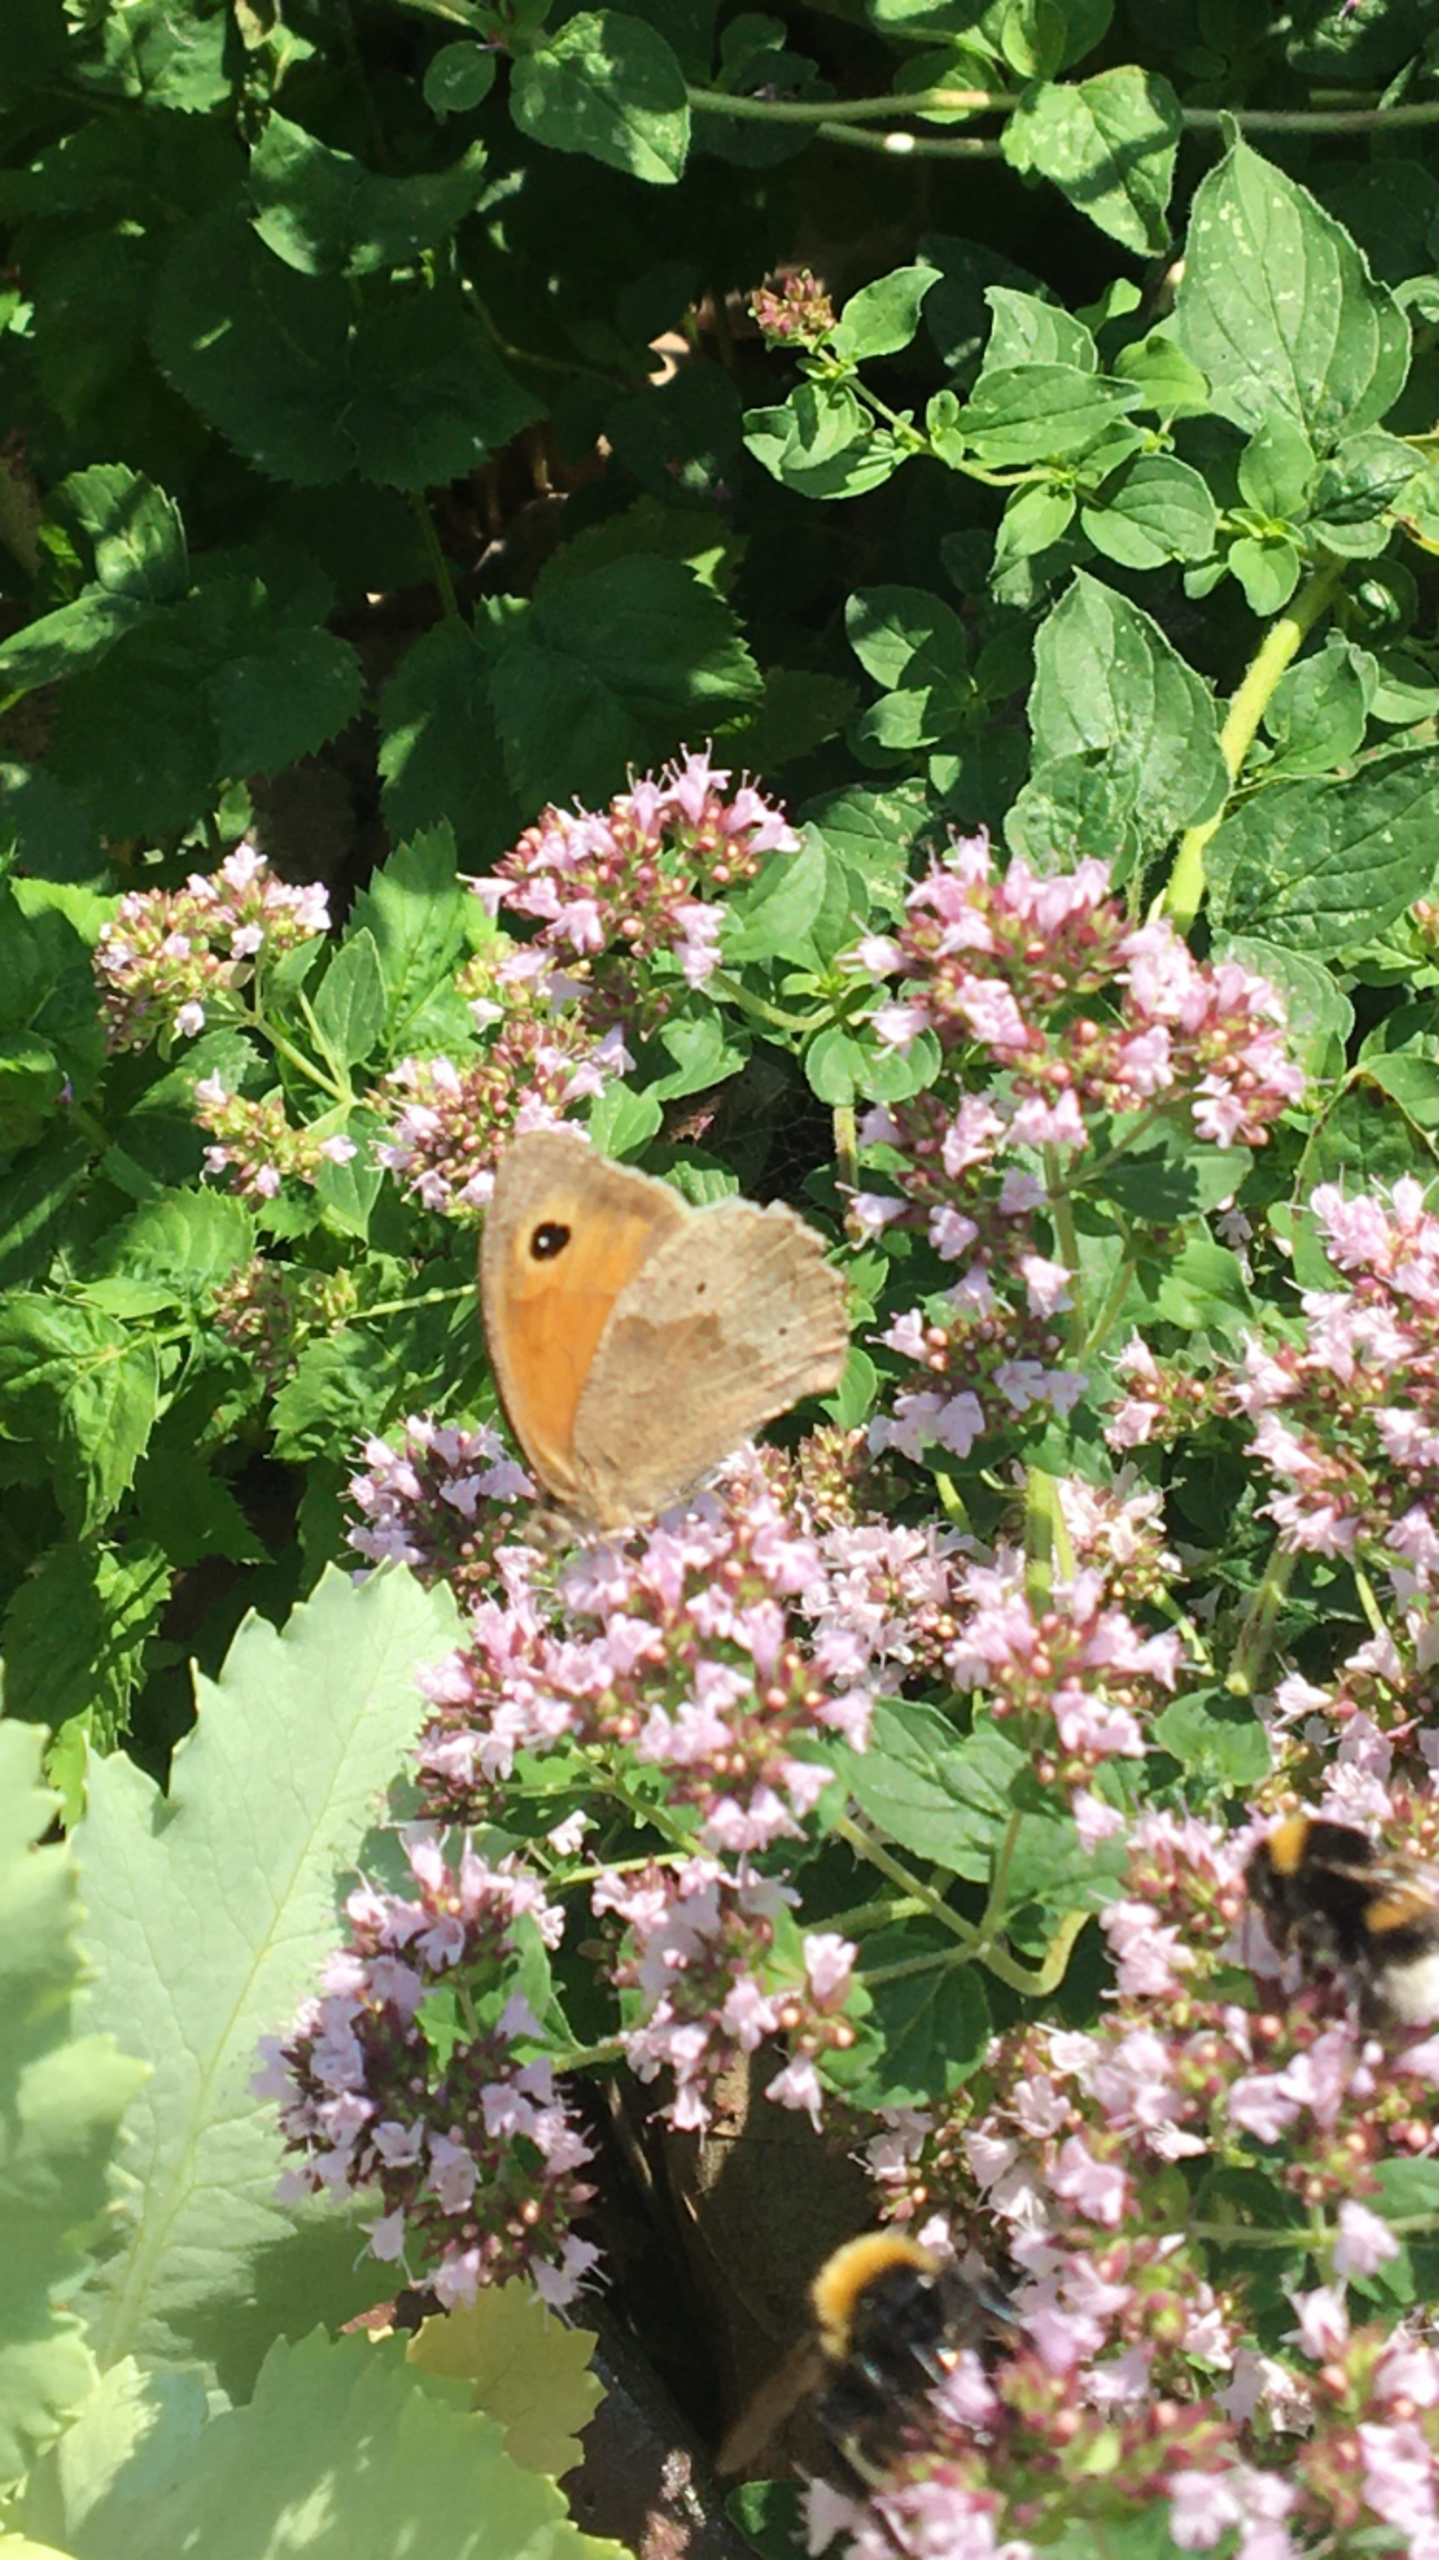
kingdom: Animalia
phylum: Arthropoda
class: Insecta
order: Lepidoptera
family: Nymphalidae
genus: Maniola
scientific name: Maniola jurtina
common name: Græsrandøje
